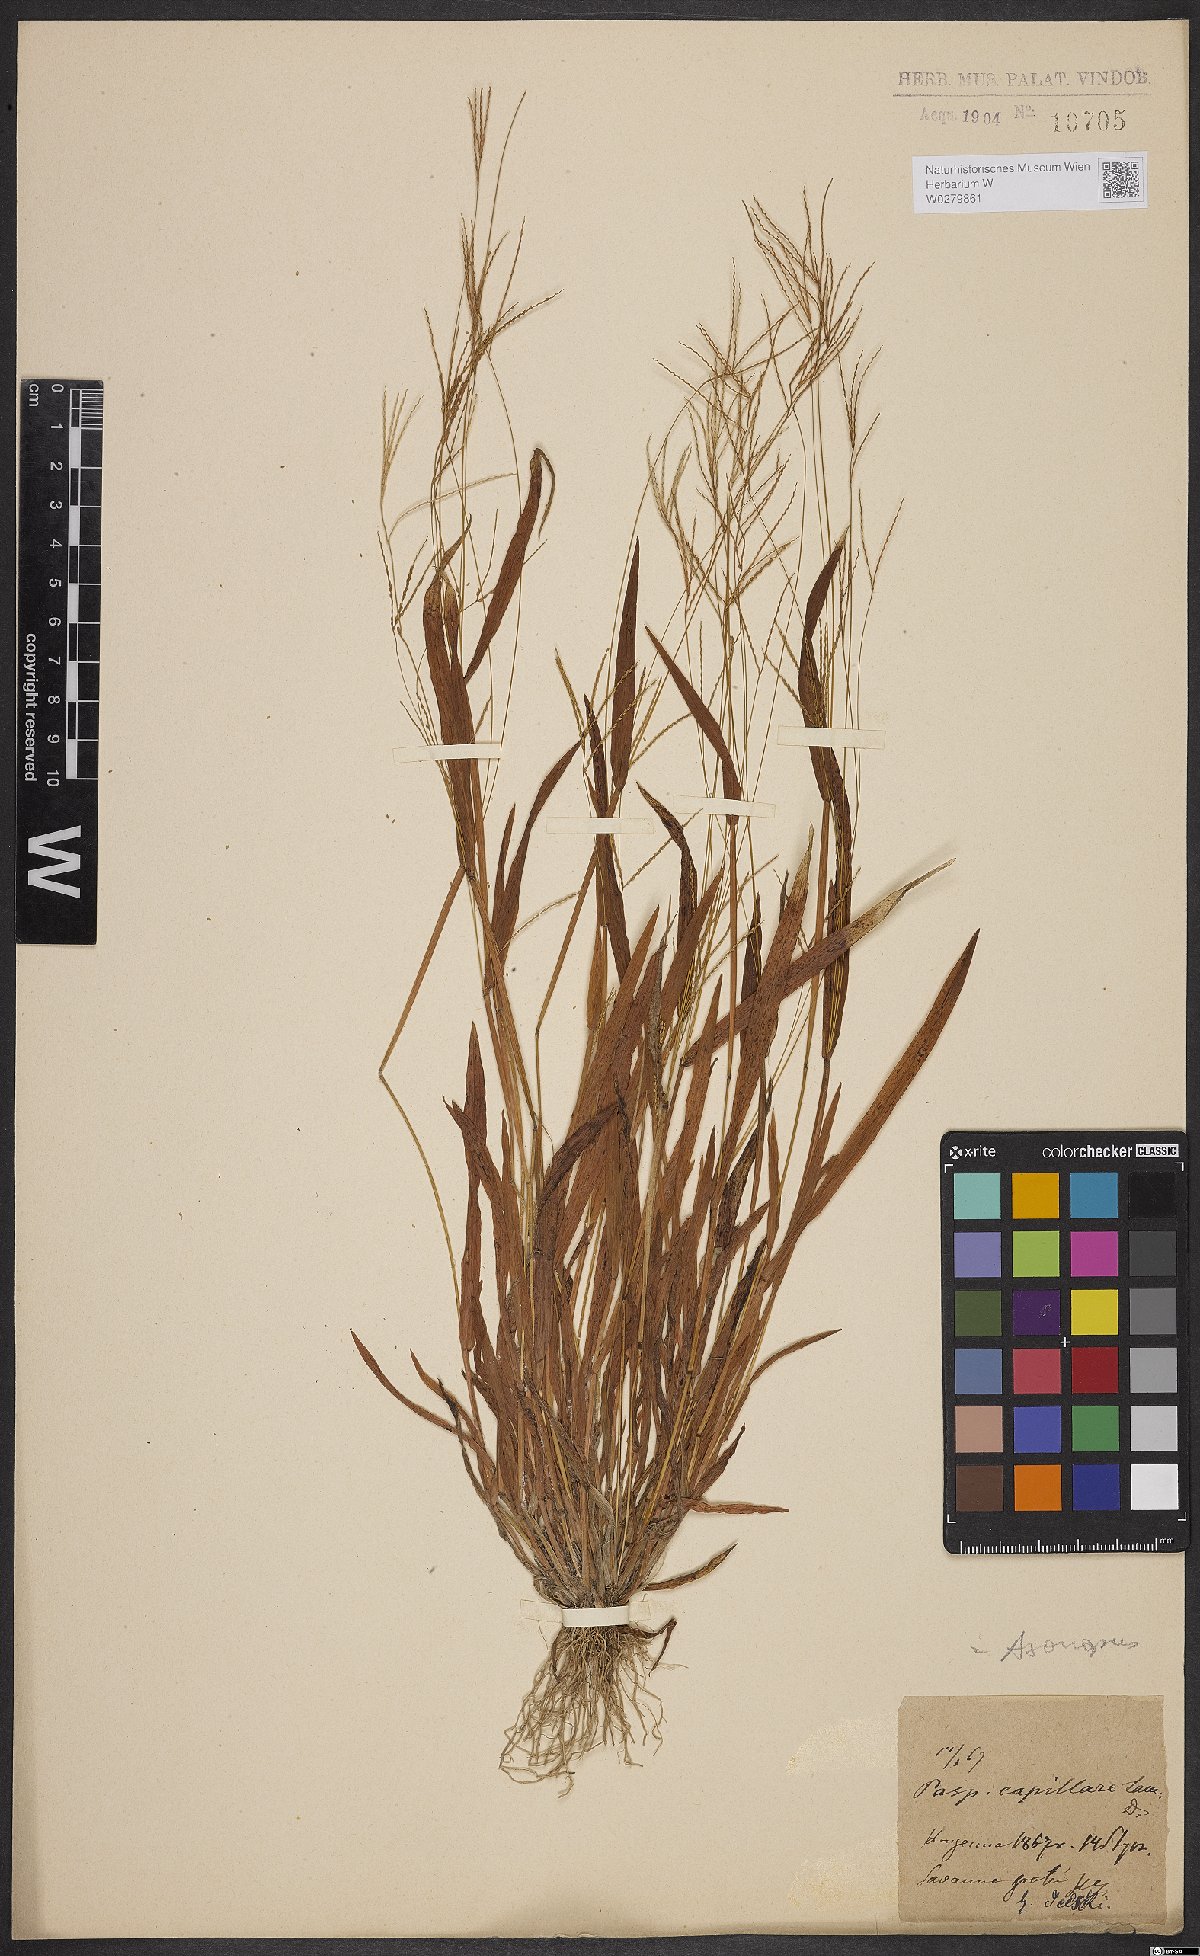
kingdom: Plantae
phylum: Tracheophyta
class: Liliopsida
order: Poales
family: Poaceae
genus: Axonopus
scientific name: Axonopus capillaris
